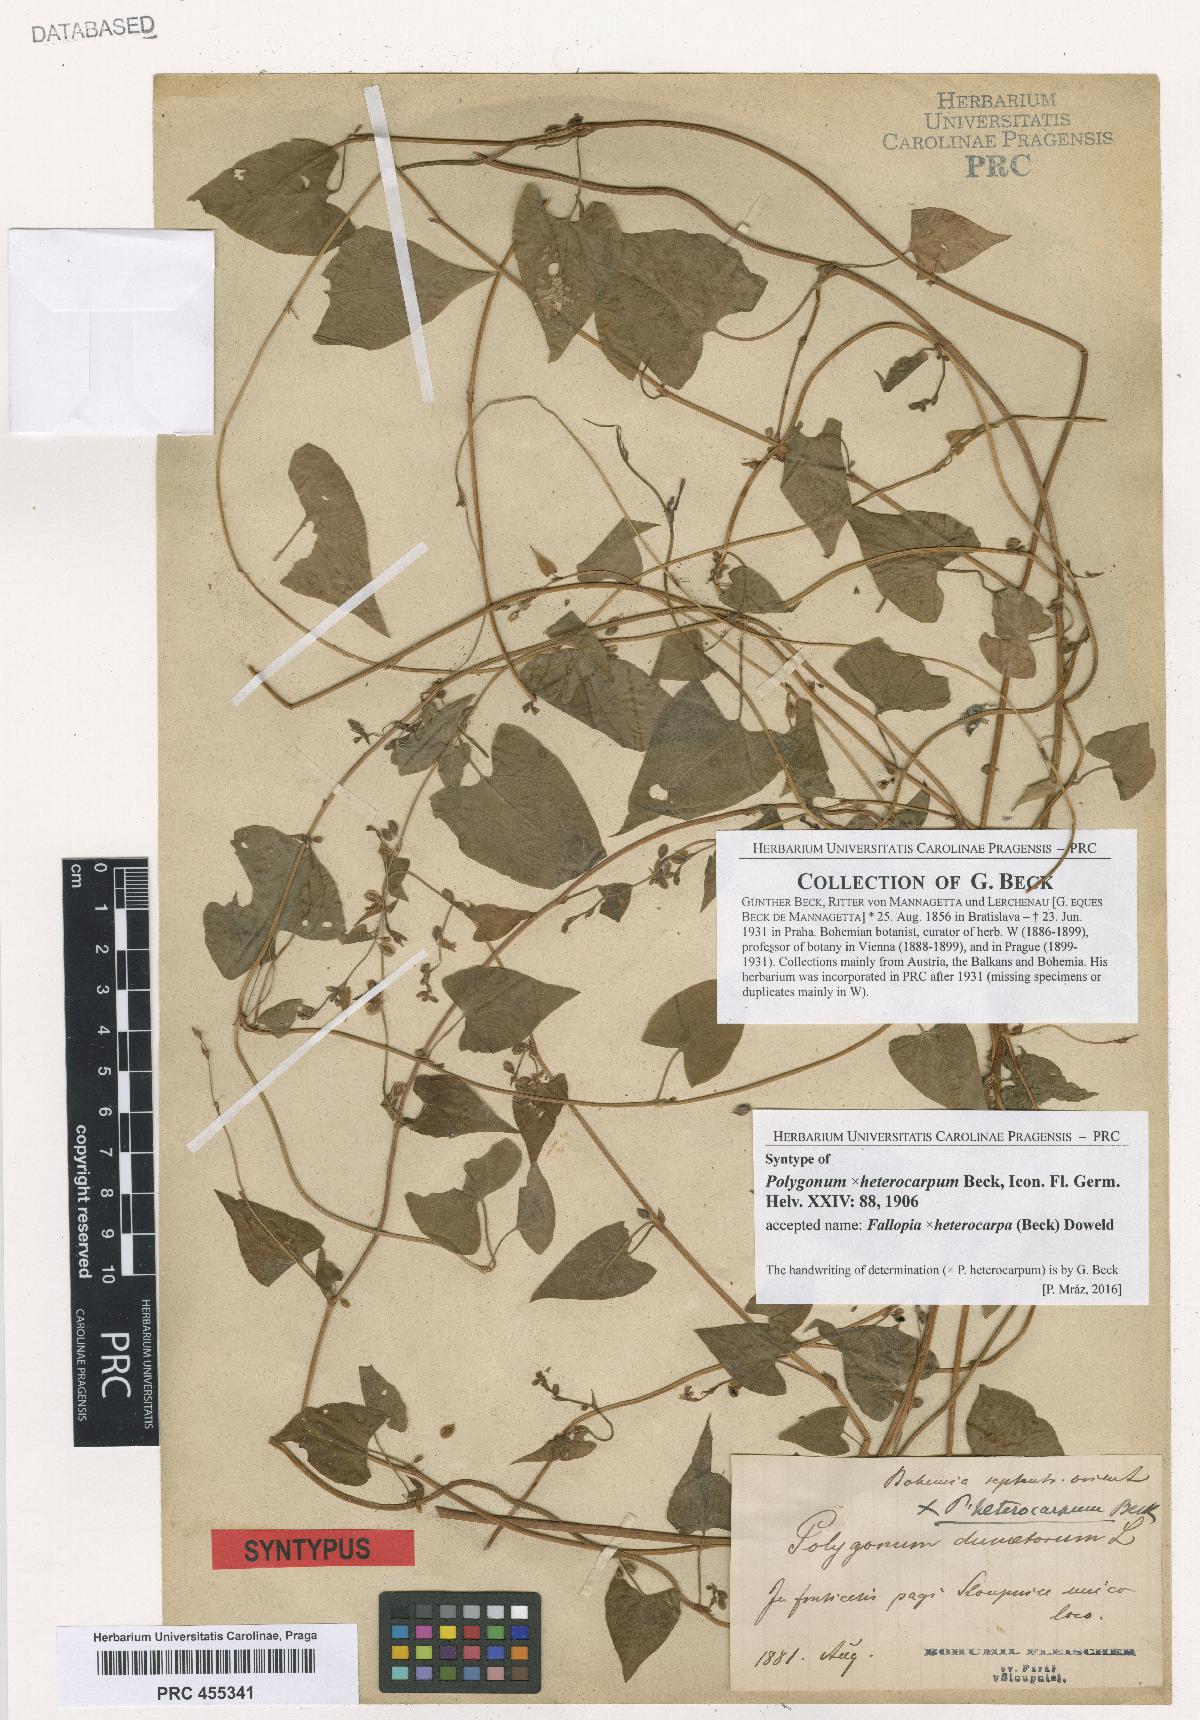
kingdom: Plantae
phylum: Tracheophyta
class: Magnoliopsida
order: Caryophyllales
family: Polygonaceae
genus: Fallopia
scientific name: Fallopia heterocarpa
